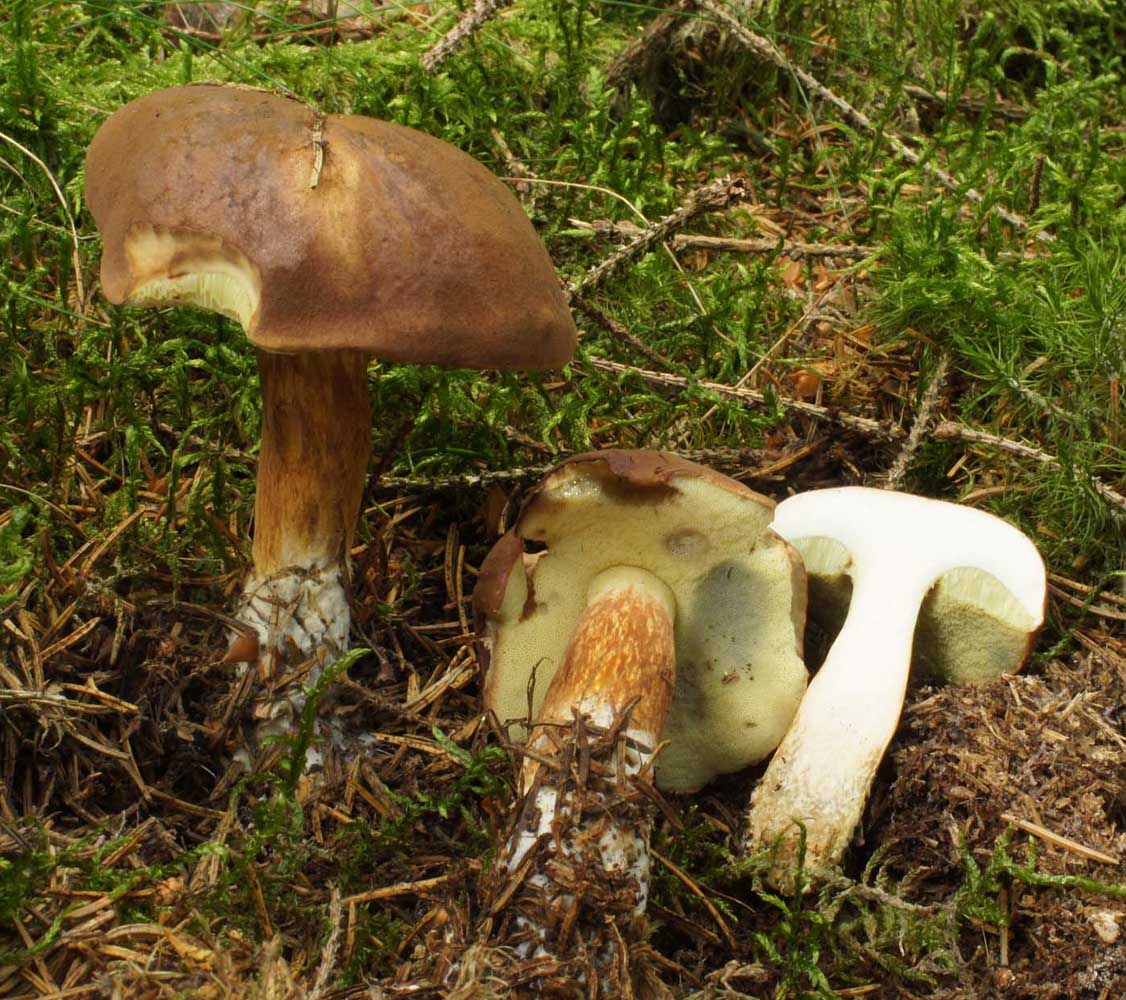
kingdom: Fungi
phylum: Basidiomycota
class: Agaricomycetes
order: Boletales
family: Boletaceae
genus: Imleria
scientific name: Imleria badia
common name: brunstokket rørhat
